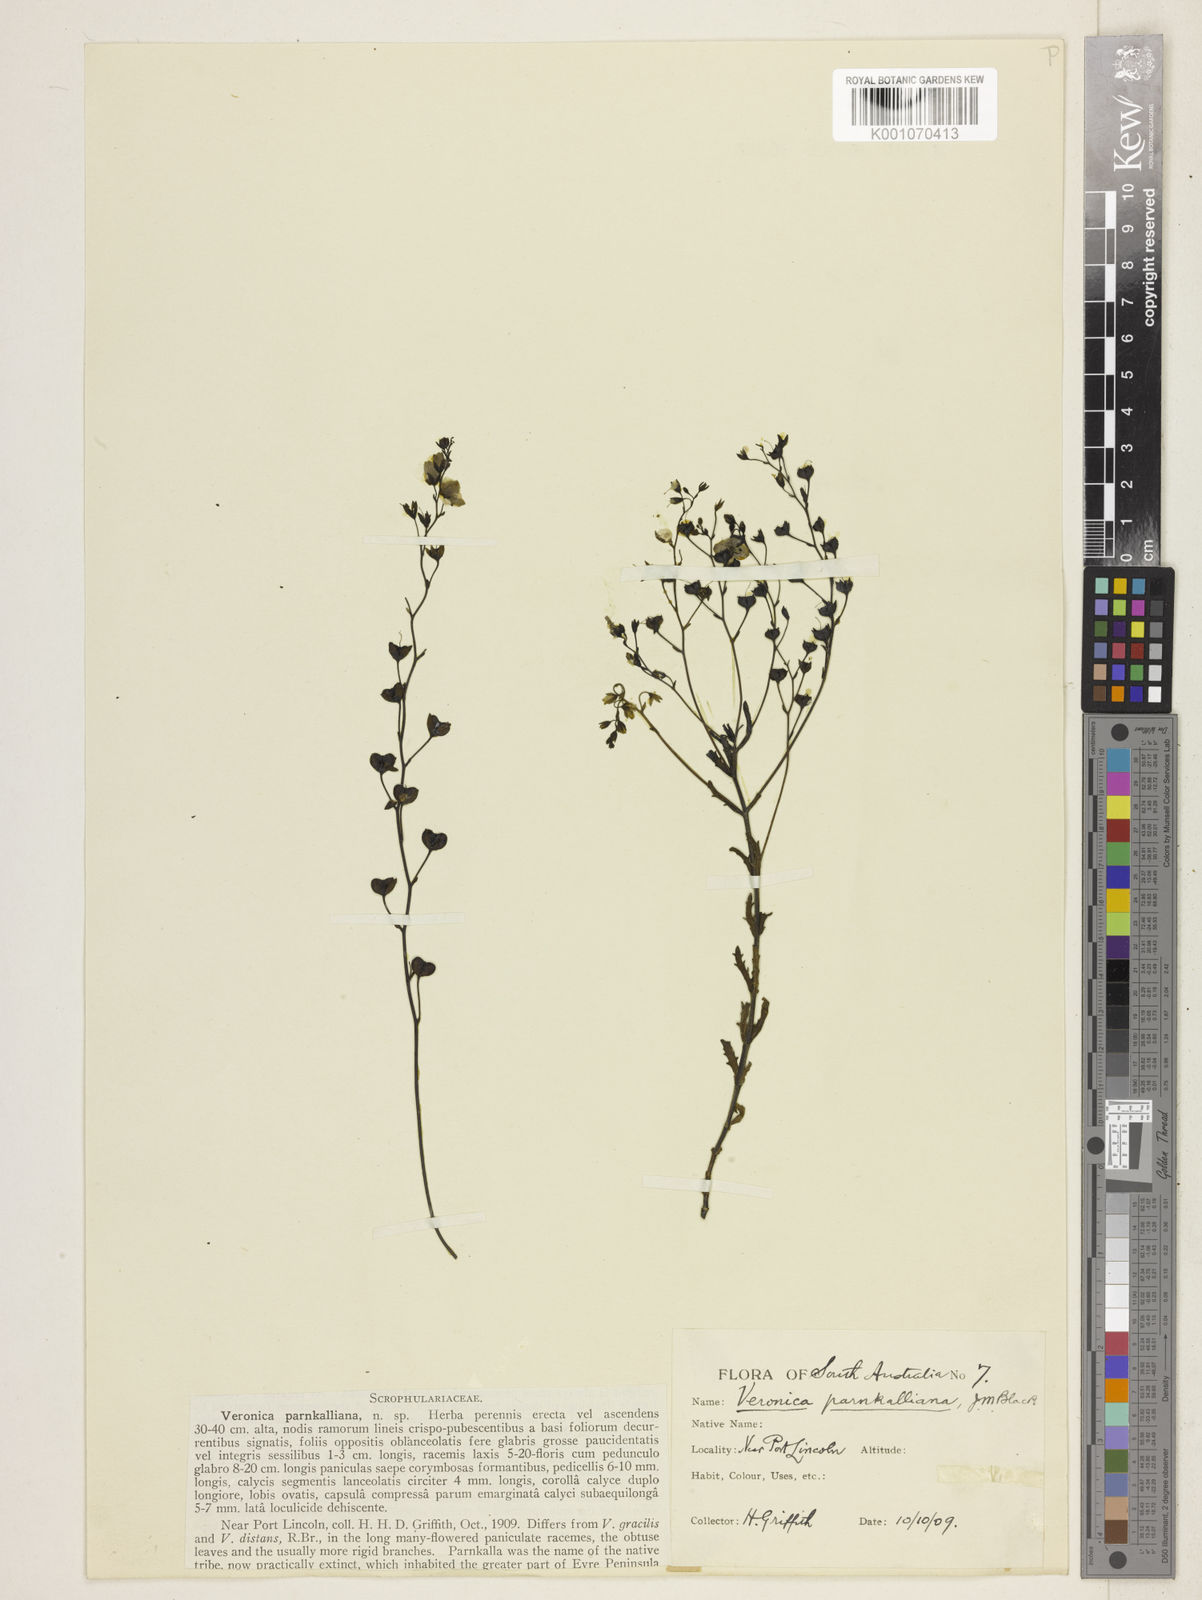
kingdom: Plantae
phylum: Tracheophyta
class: Magnoliopsida
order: Lamiales
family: Plantaginaceae
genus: Veronica
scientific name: Veronica parnkalliana
